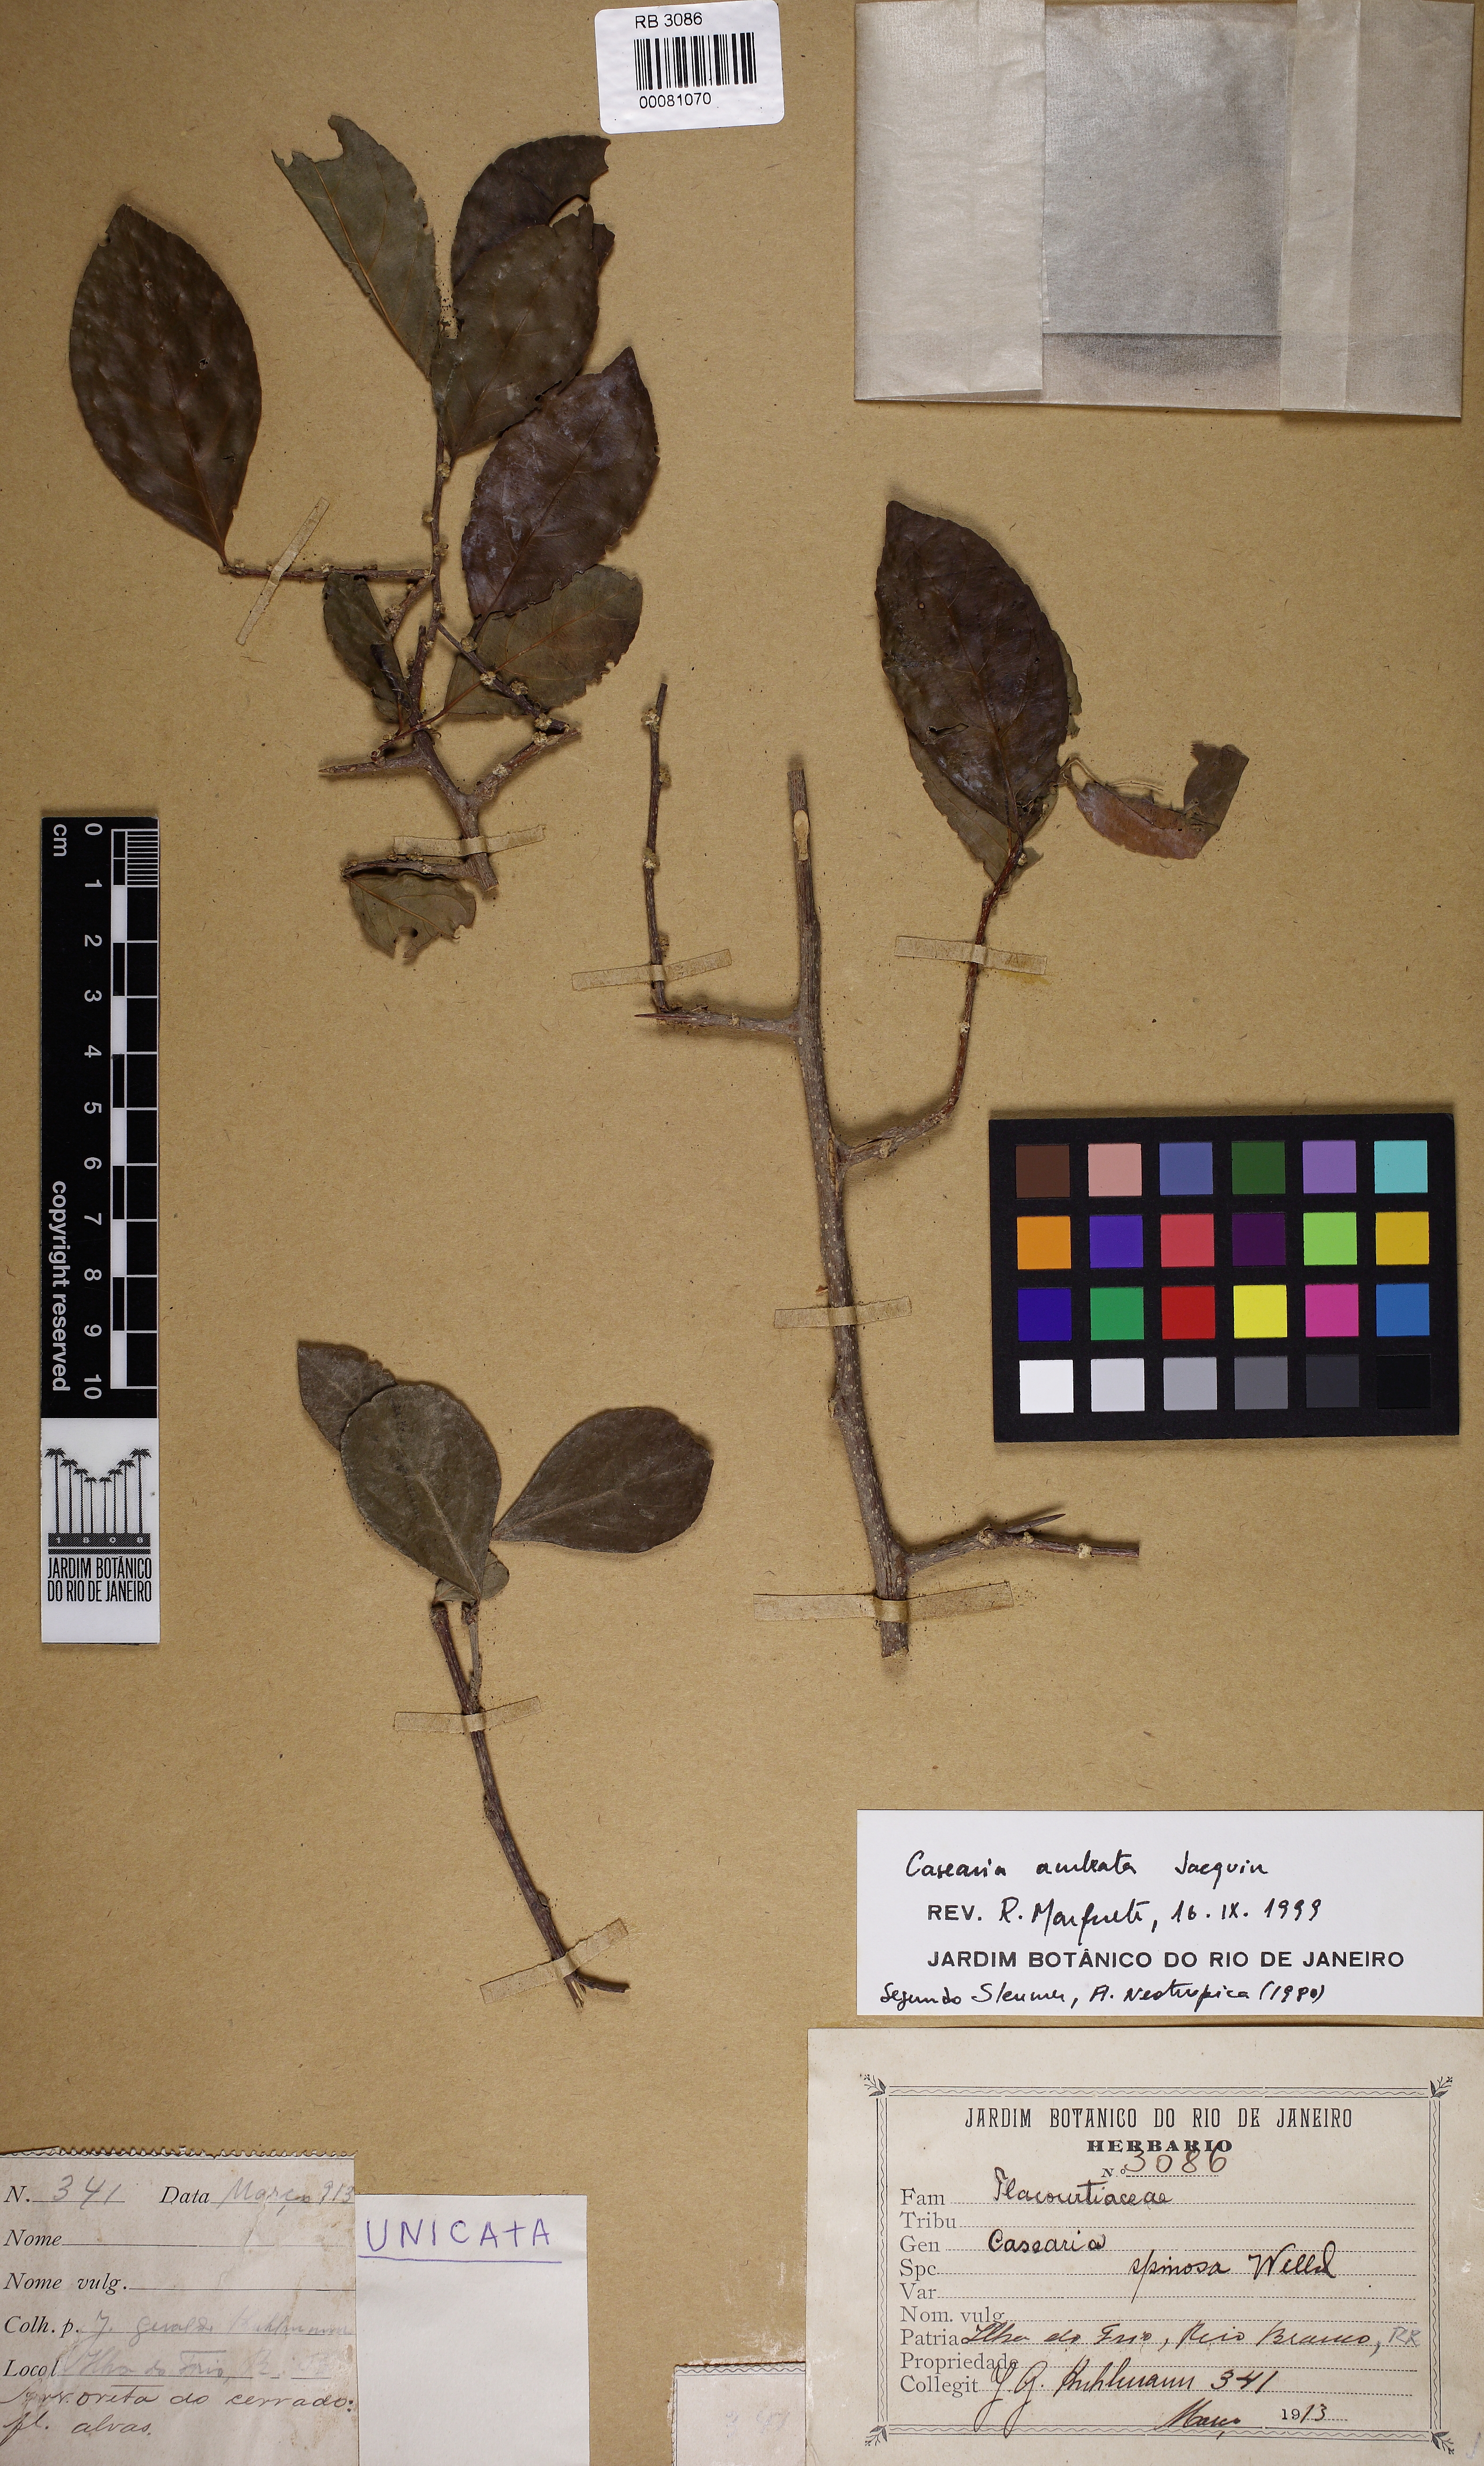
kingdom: Plantae
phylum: Tracheophyta
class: Magnoliopsida
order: Malpighiales
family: Salicaceae
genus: Casearia
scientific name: Casearia aculeata
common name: Cockspur
